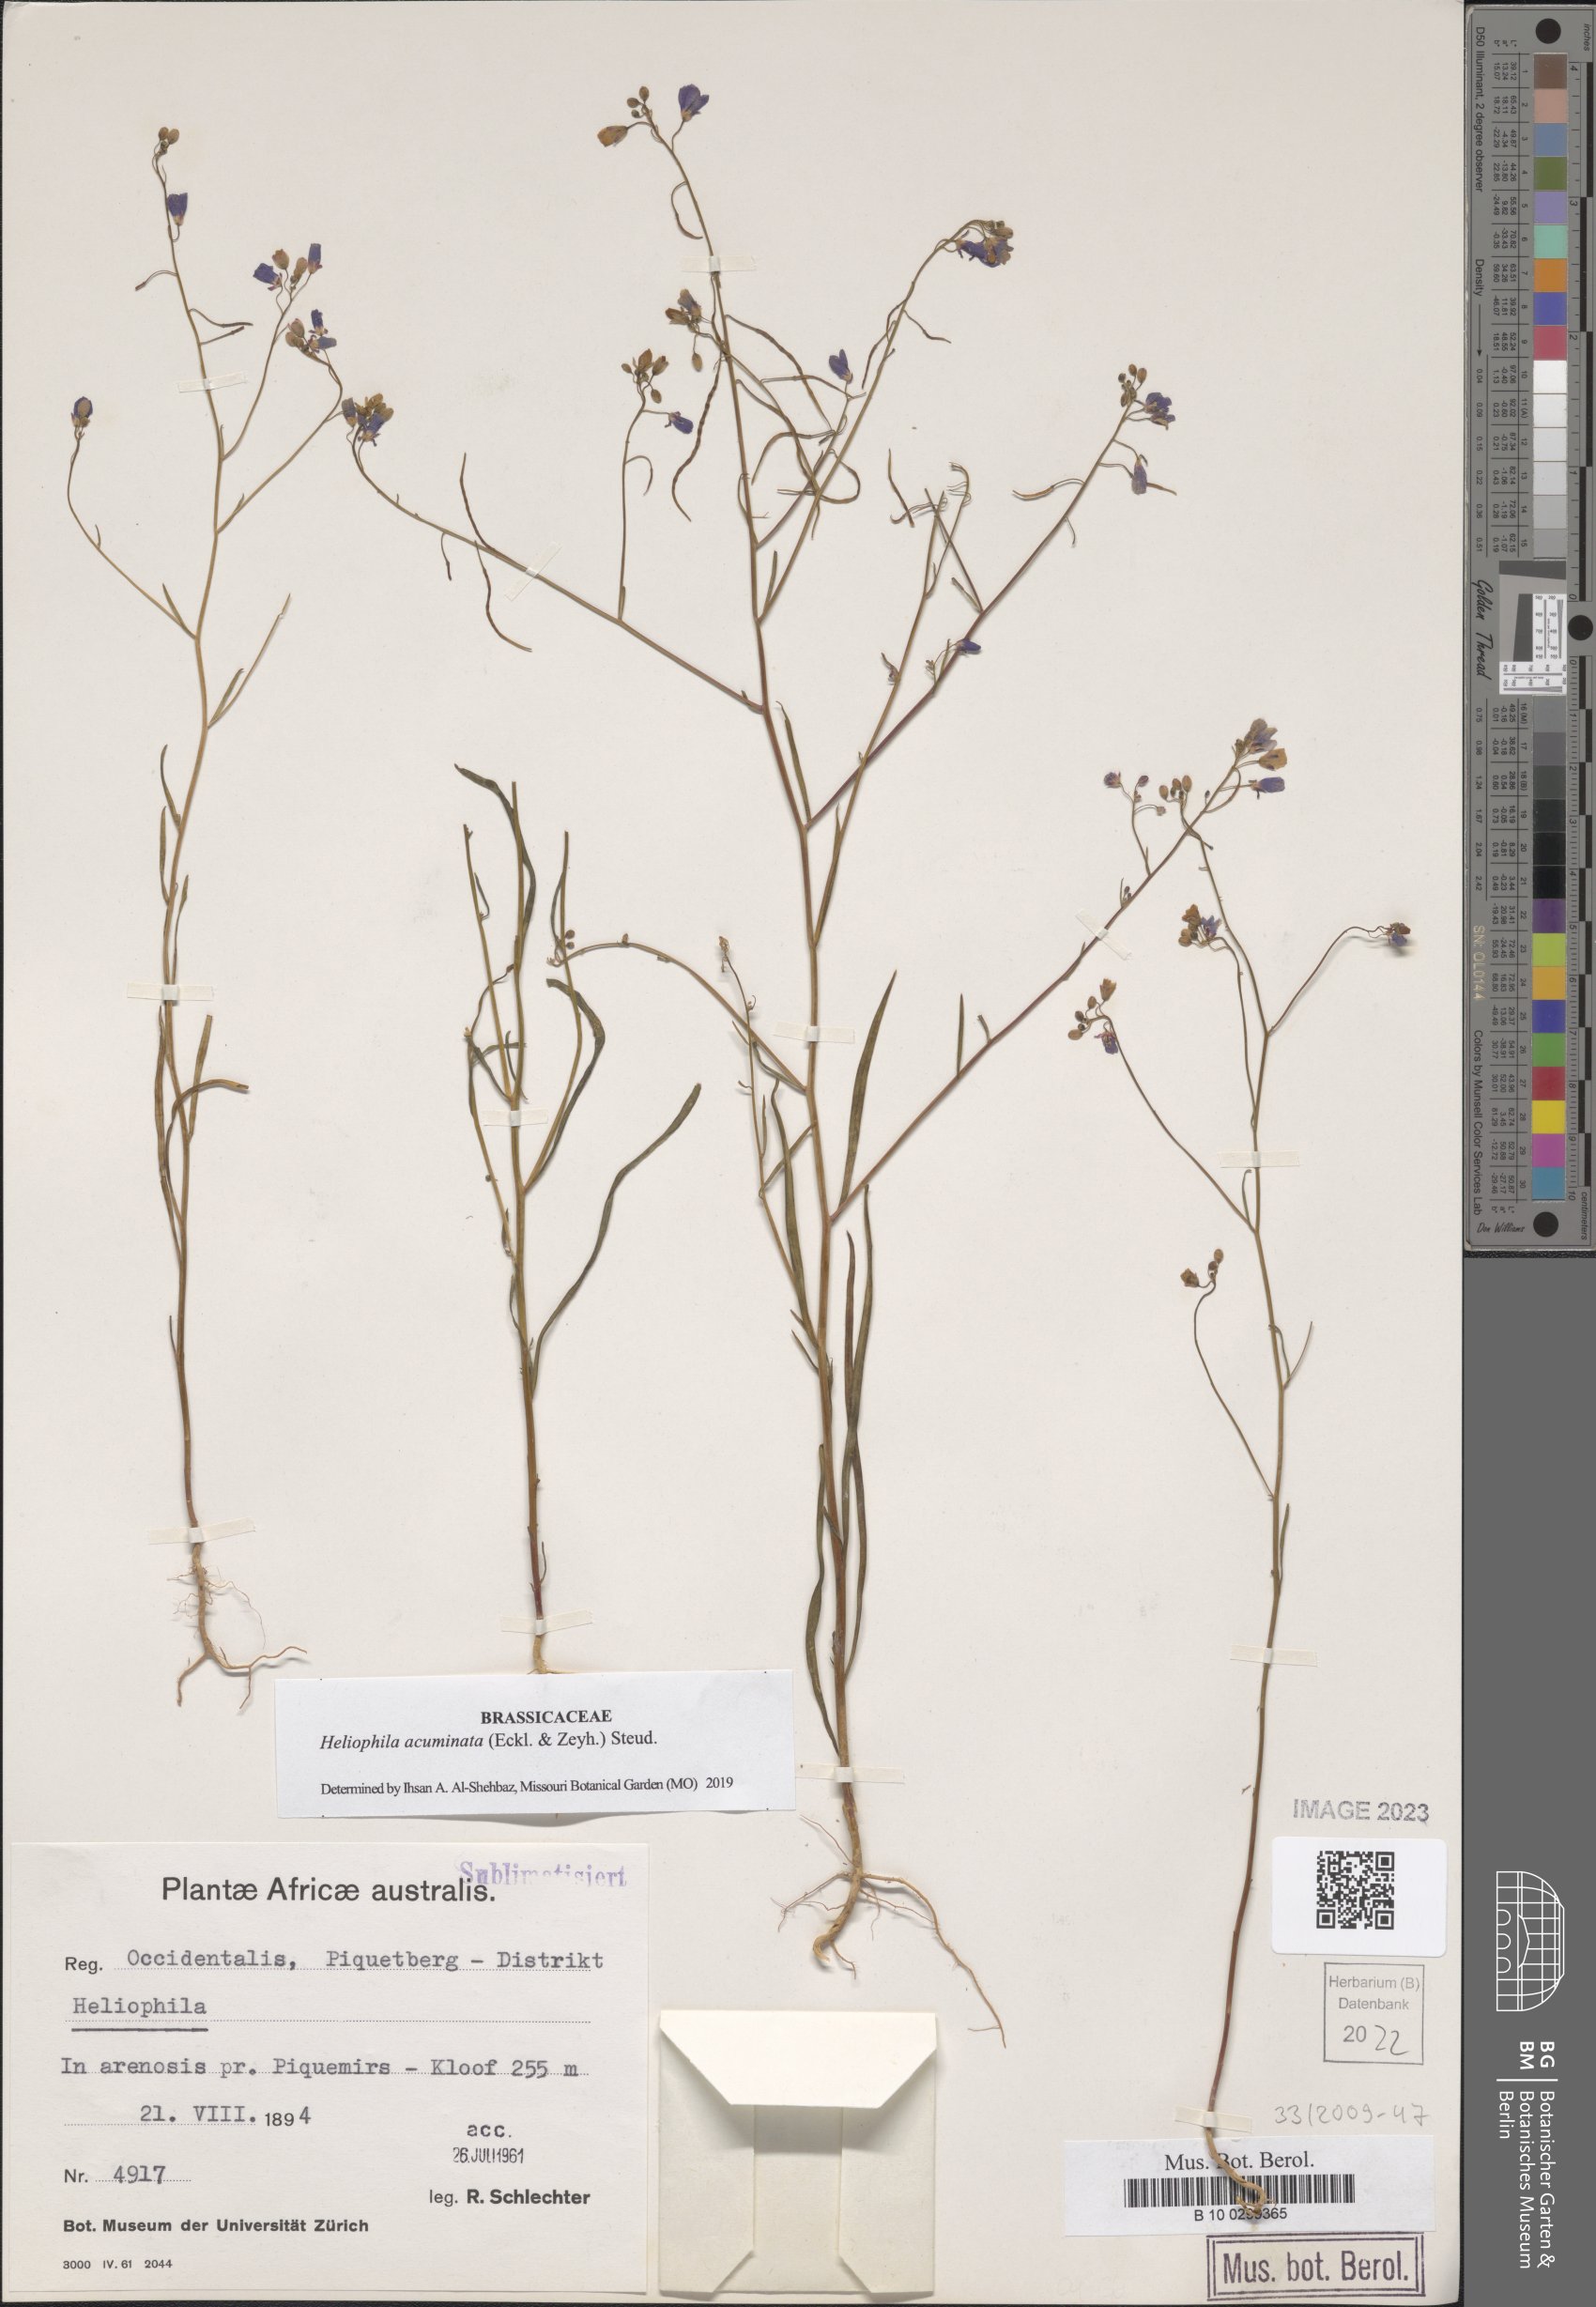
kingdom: Plantae
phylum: Tracheophyta
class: Magnoliopsida
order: Brassicales
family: Brassicaceae
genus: Heliophila
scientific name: Heliophila acuminata
